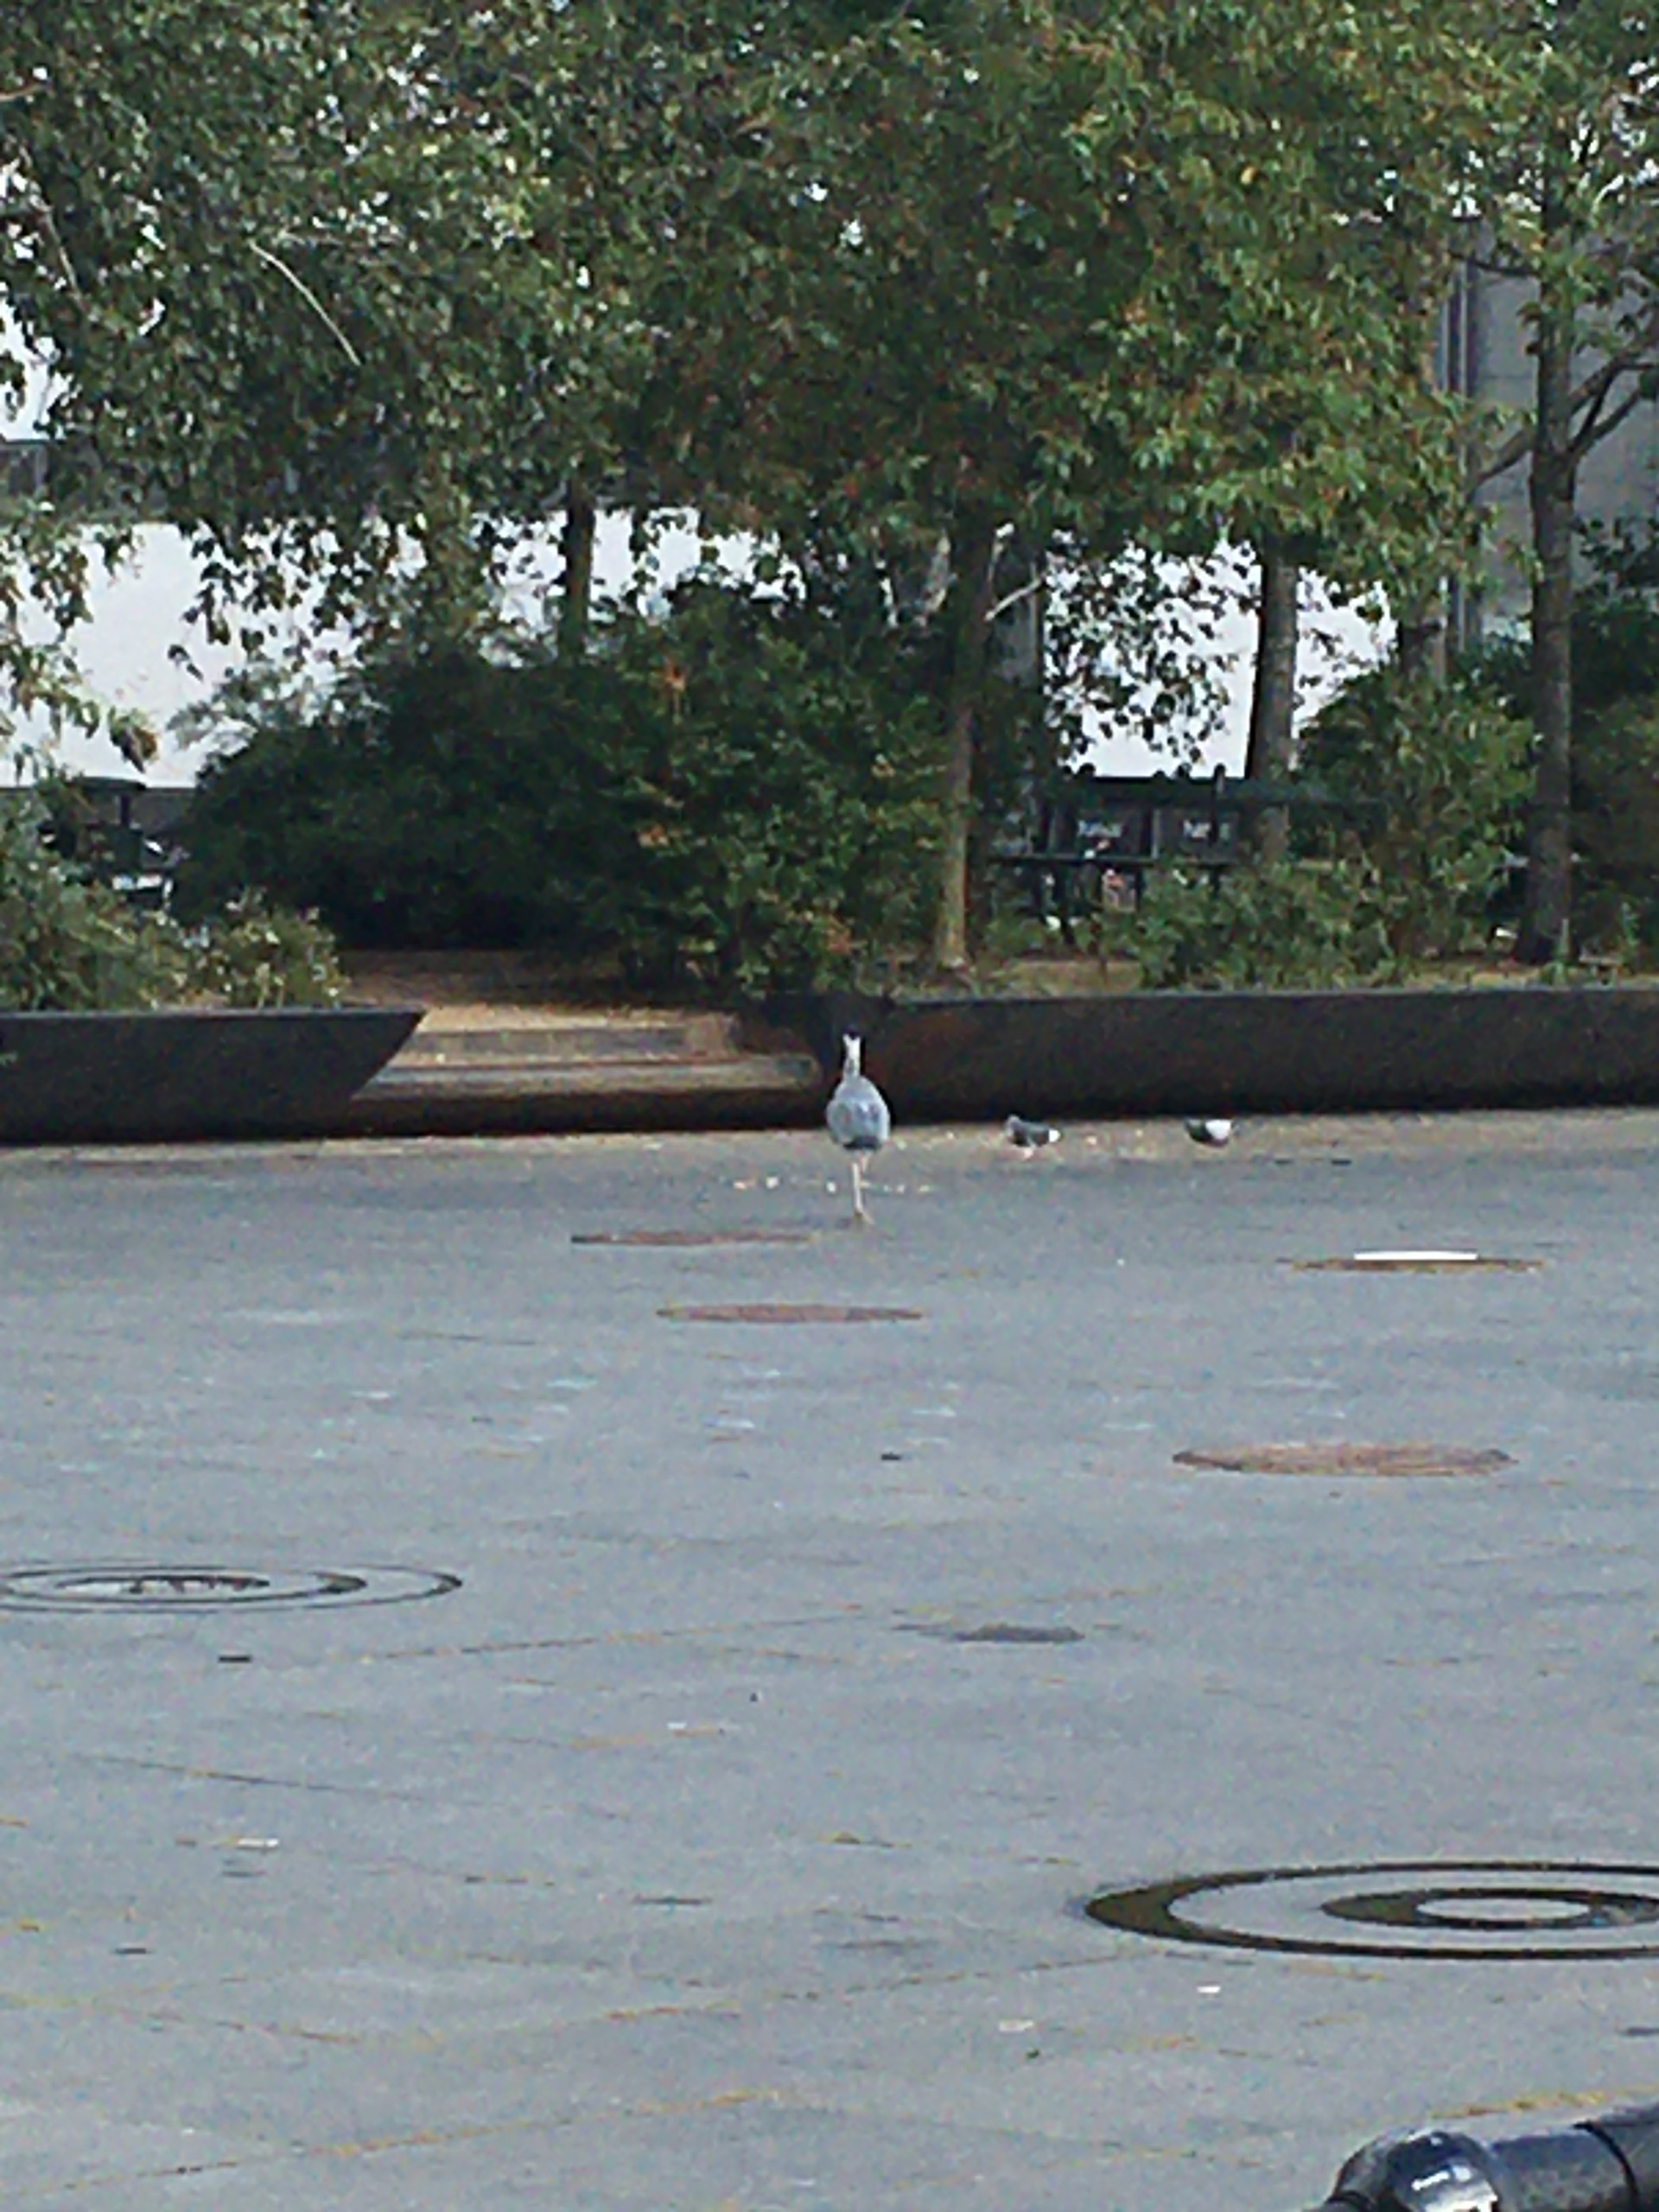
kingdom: Animalia
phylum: Chordata
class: Aves
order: Pelecaniformes
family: Ardeidae
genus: Ardea
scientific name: Ardea cinerea
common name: Fiskehejre
